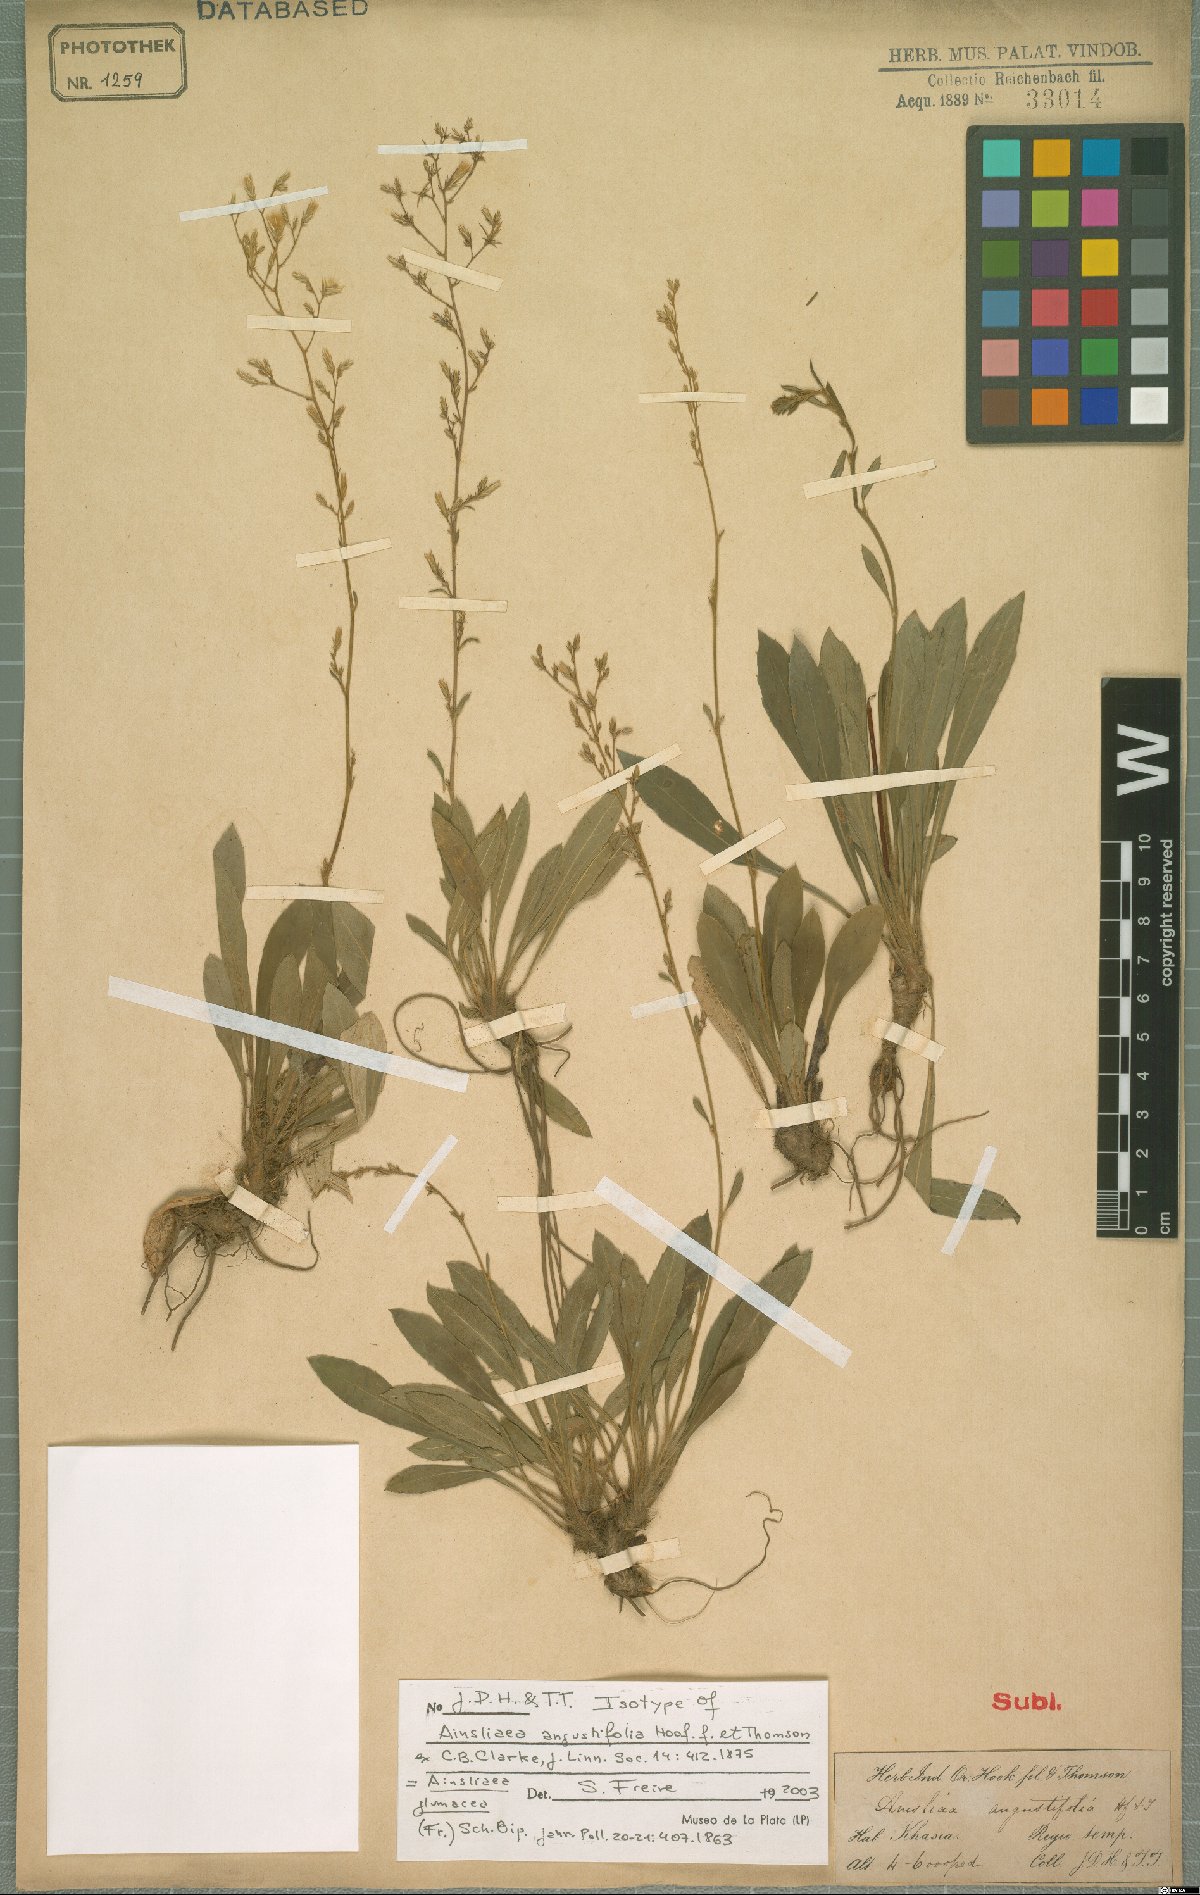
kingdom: Plantae
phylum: Tracheophyta
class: Magnoliopsida
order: Asterales
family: Asteraceae
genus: Ainsliaea
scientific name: Ainsliaea angustifolia
